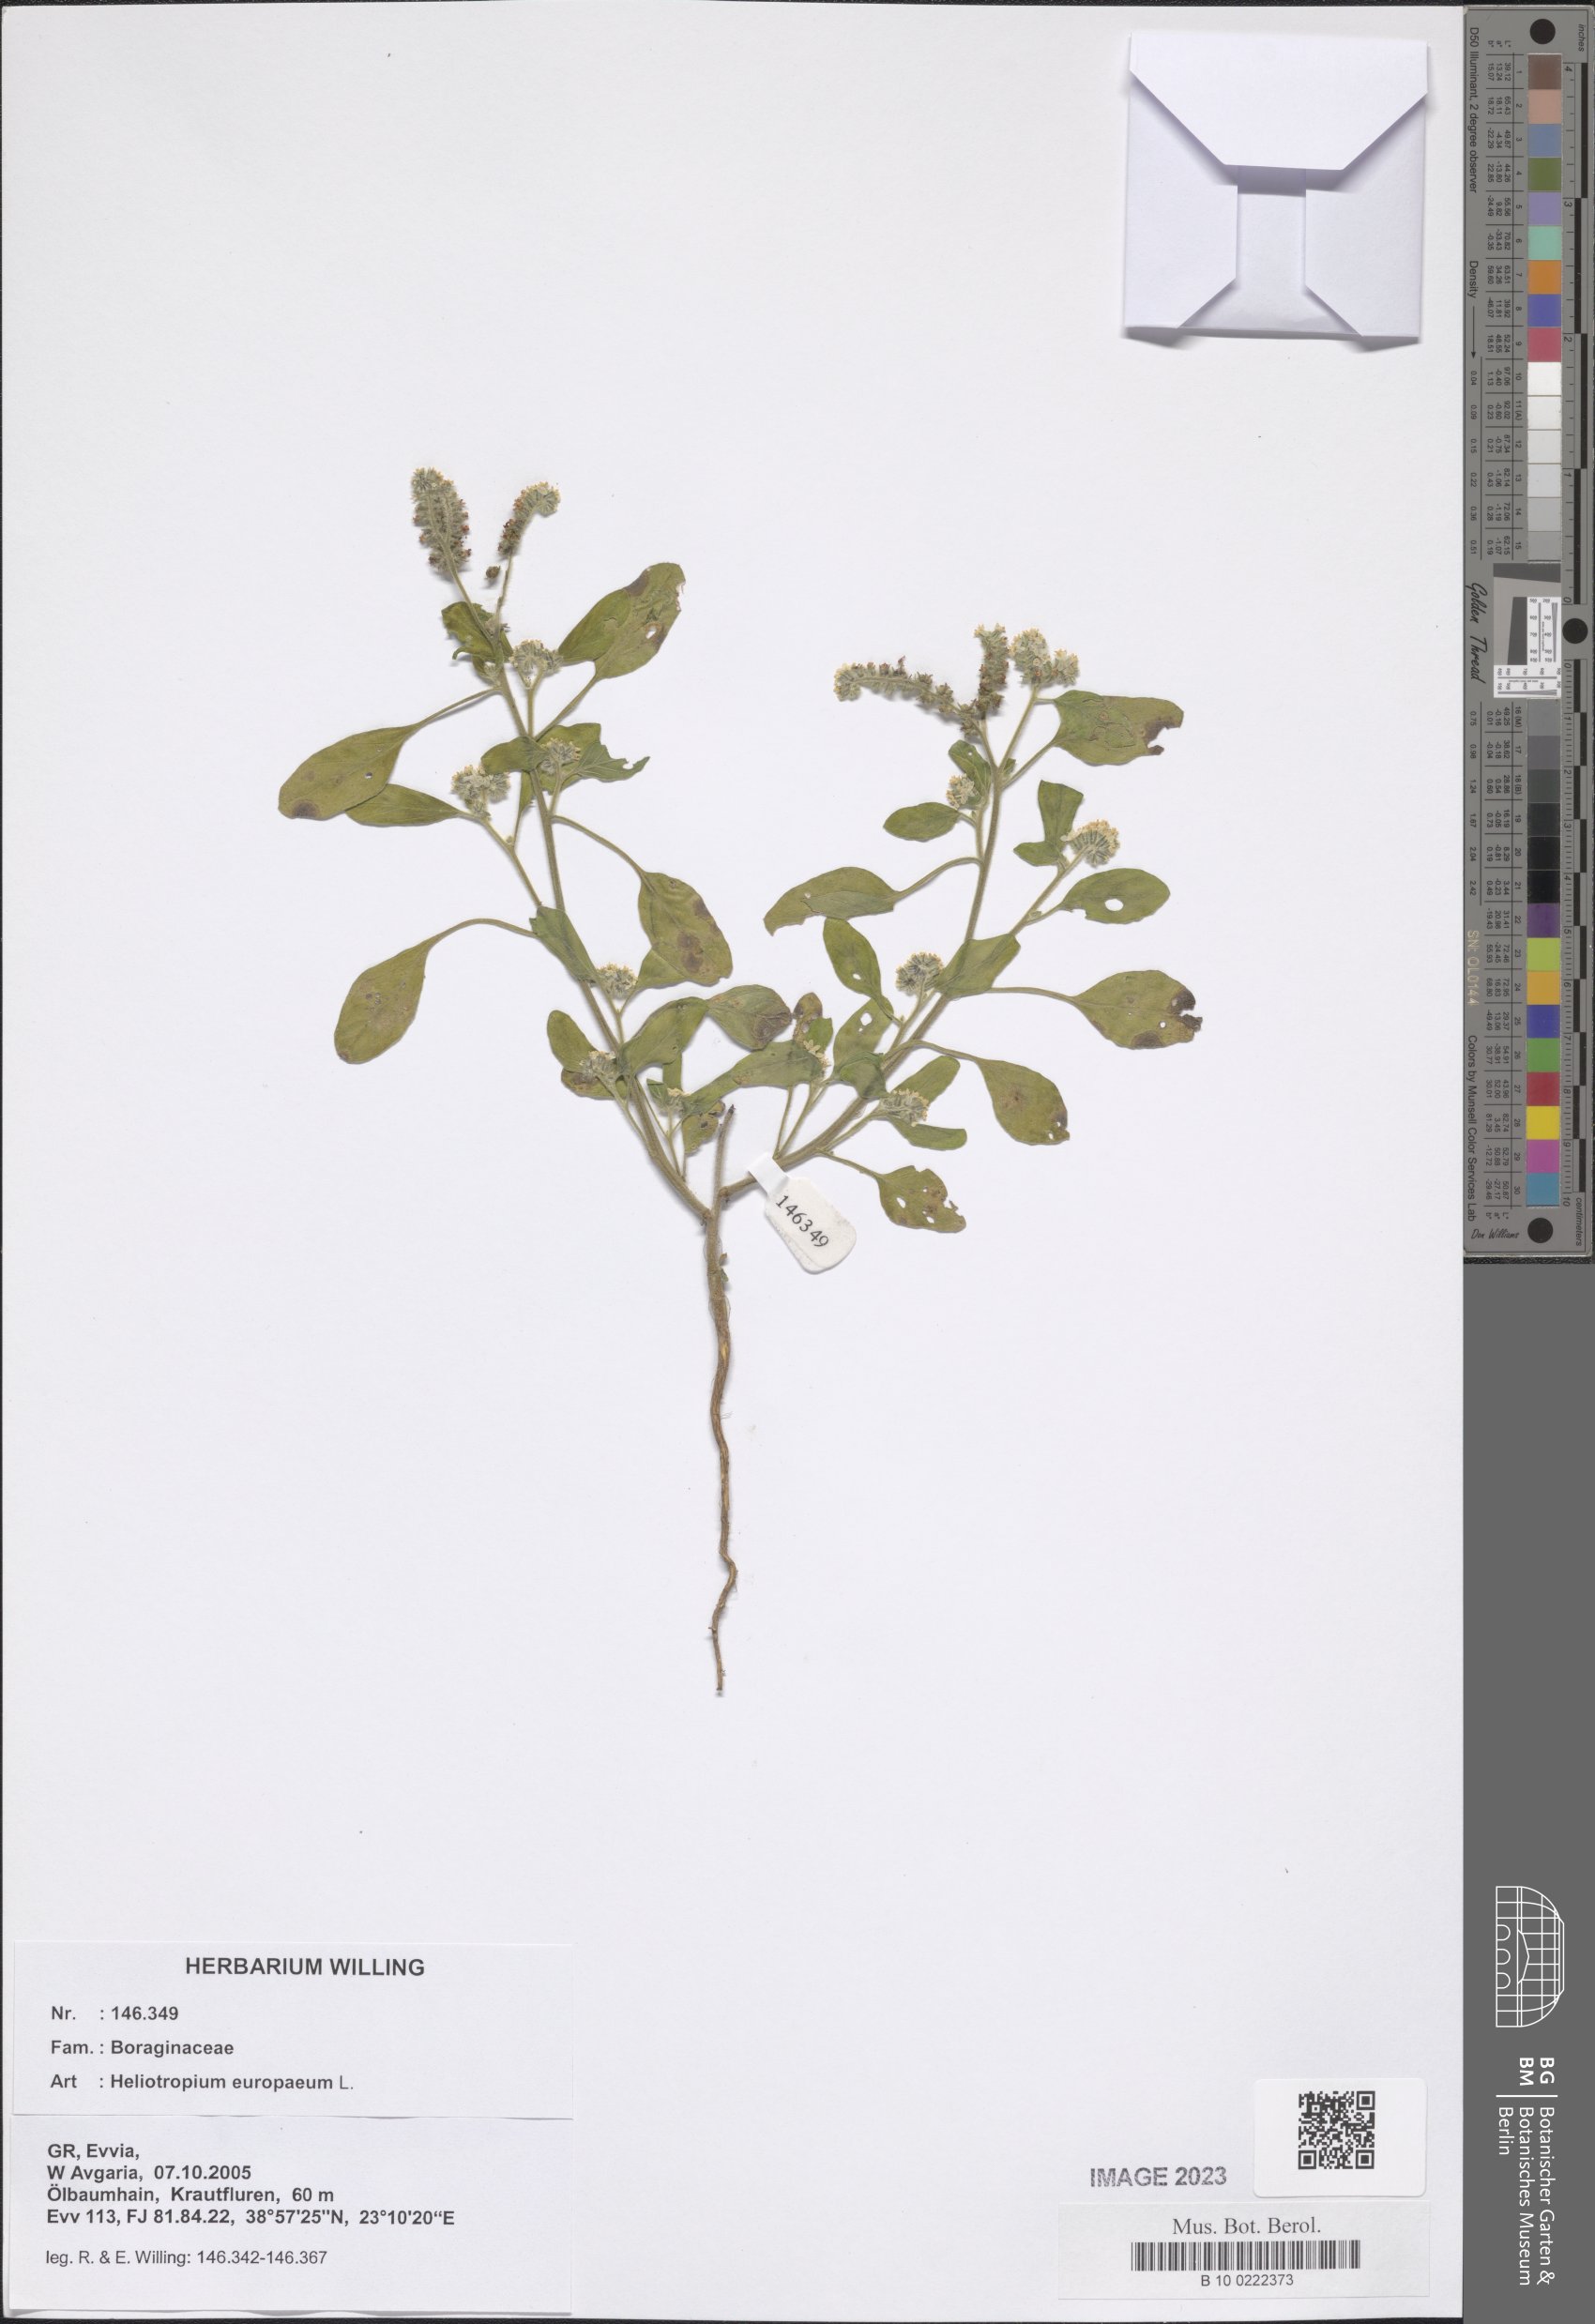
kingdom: Plantae
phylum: Tracheophyta
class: Magnoliopsida
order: Boraginales
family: Heliotropiaceae
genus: Heliotropium
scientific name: Heliotropium europaeum
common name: European heliotrope
